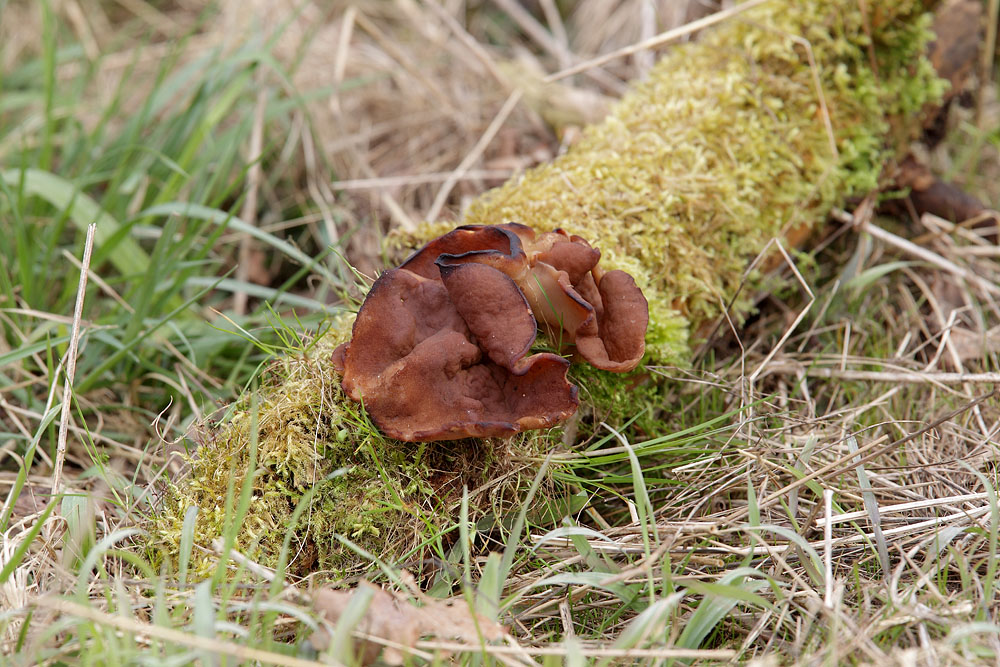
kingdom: Fungi
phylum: Ascomycota
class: Pezizomycetes
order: Pezizales
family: Discinaceae
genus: Discina
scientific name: Discina ancilis
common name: udbredt stenmorkel
